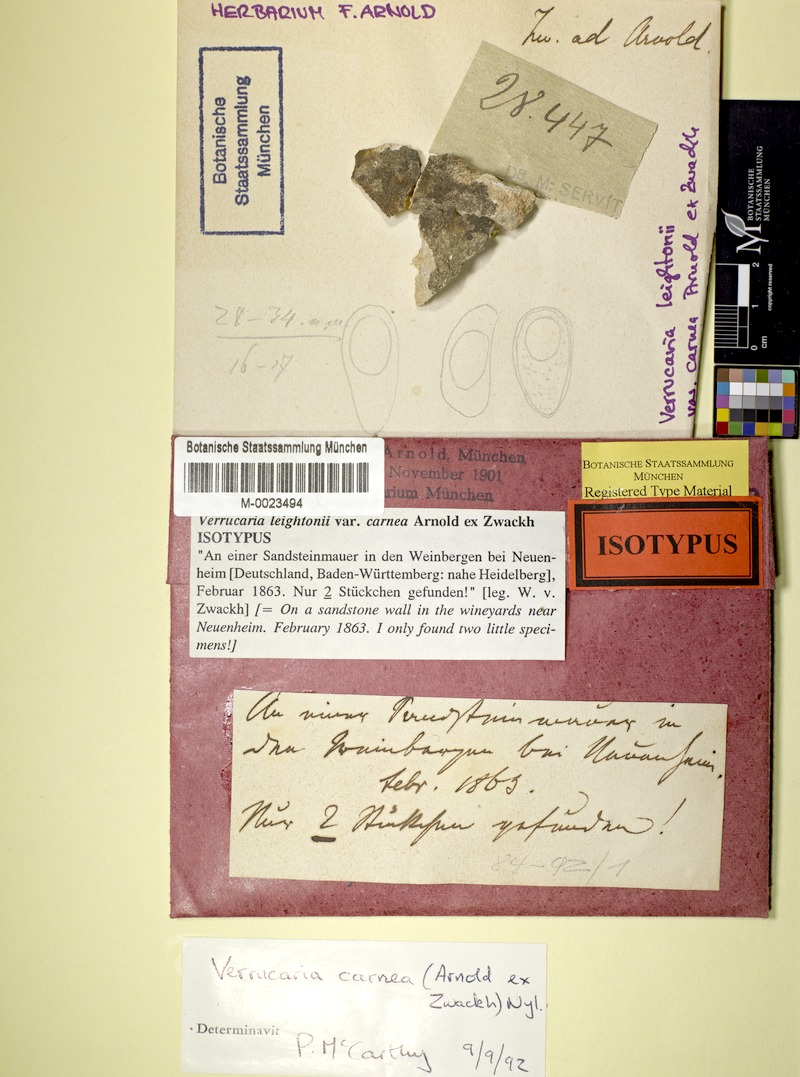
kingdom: Fungi
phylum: Ascomycota
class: Eurotiomycetes
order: Verrucariales
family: Verrucariaceae
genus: Verrucaria
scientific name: Verrucaria hochstetteri
